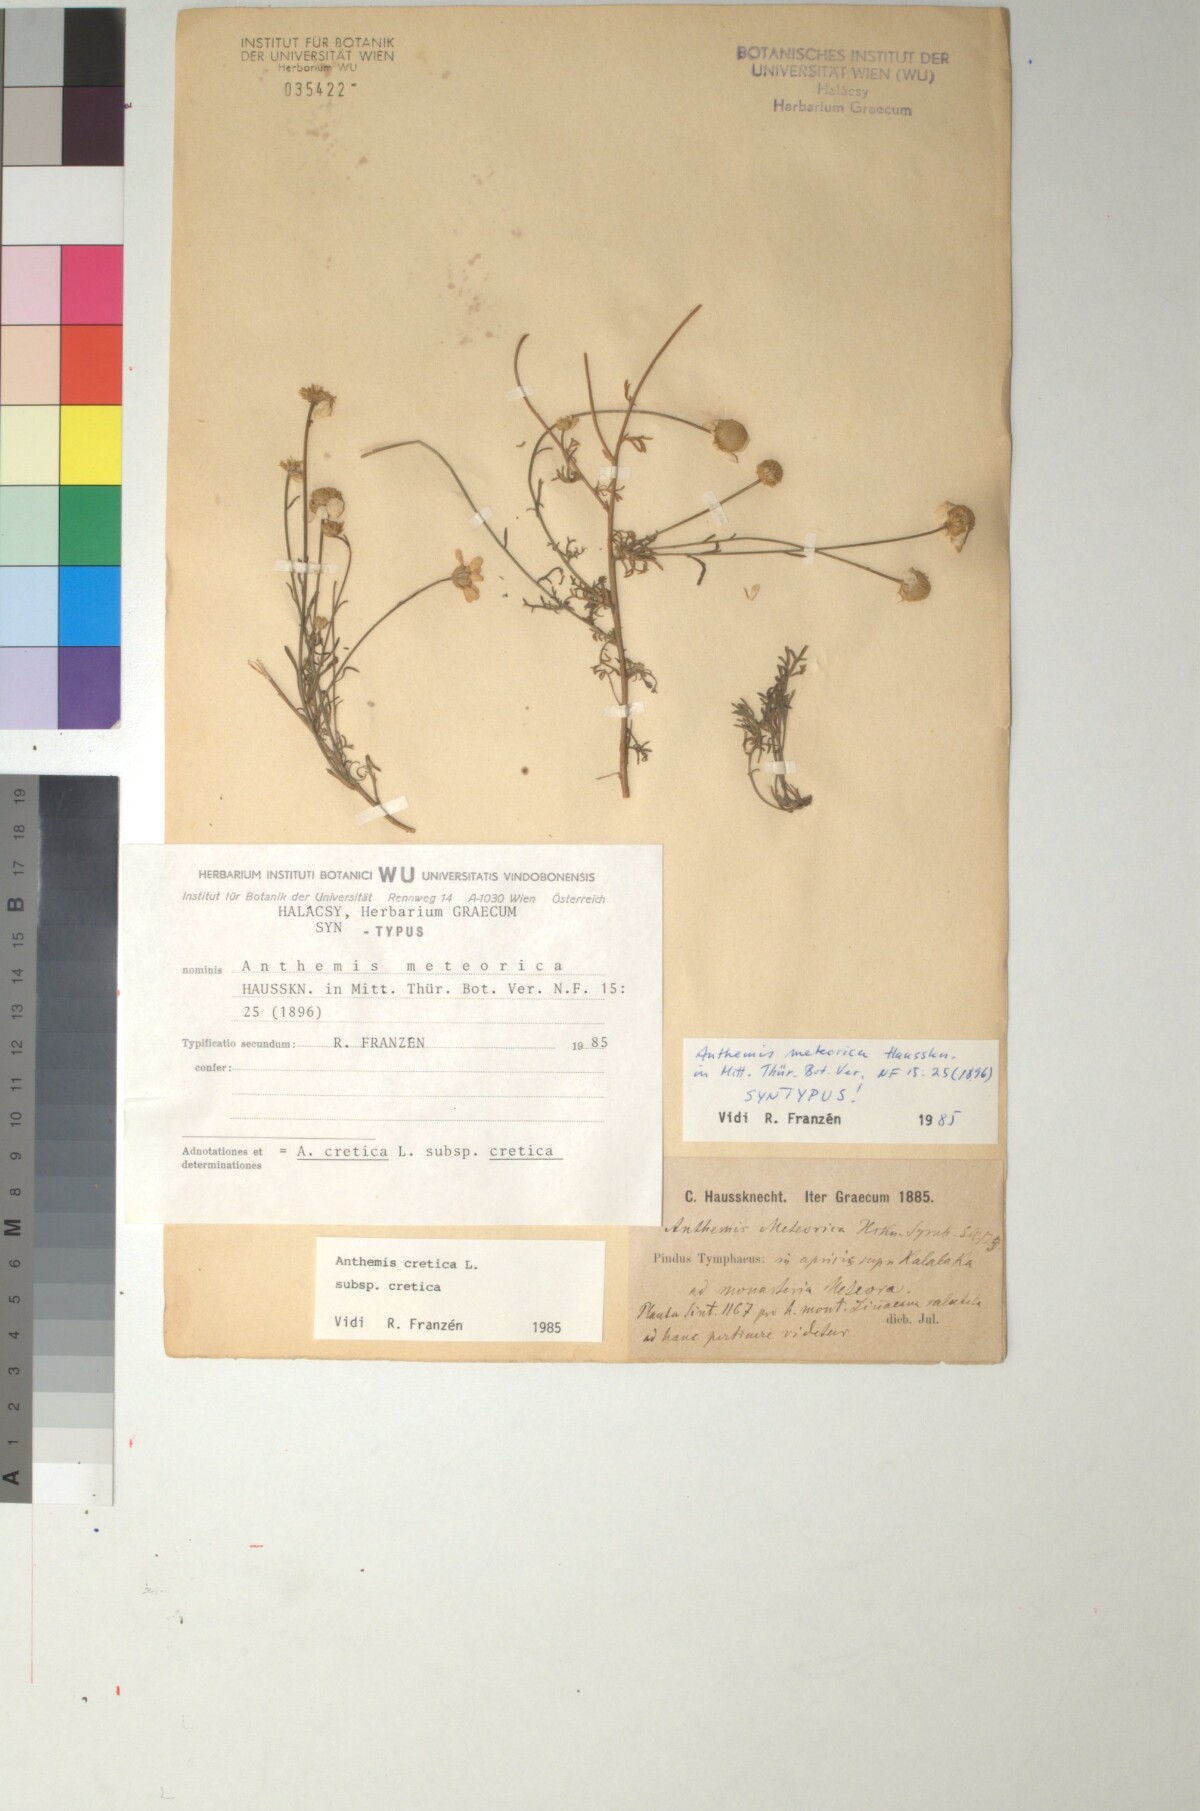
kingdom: Plantae
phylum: Tracheophyta
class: Magnoliopsida
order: Asterales
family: Asteraceae
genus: Anthemis
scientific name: Anthemis cretica
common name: Mountain dog-daisy
